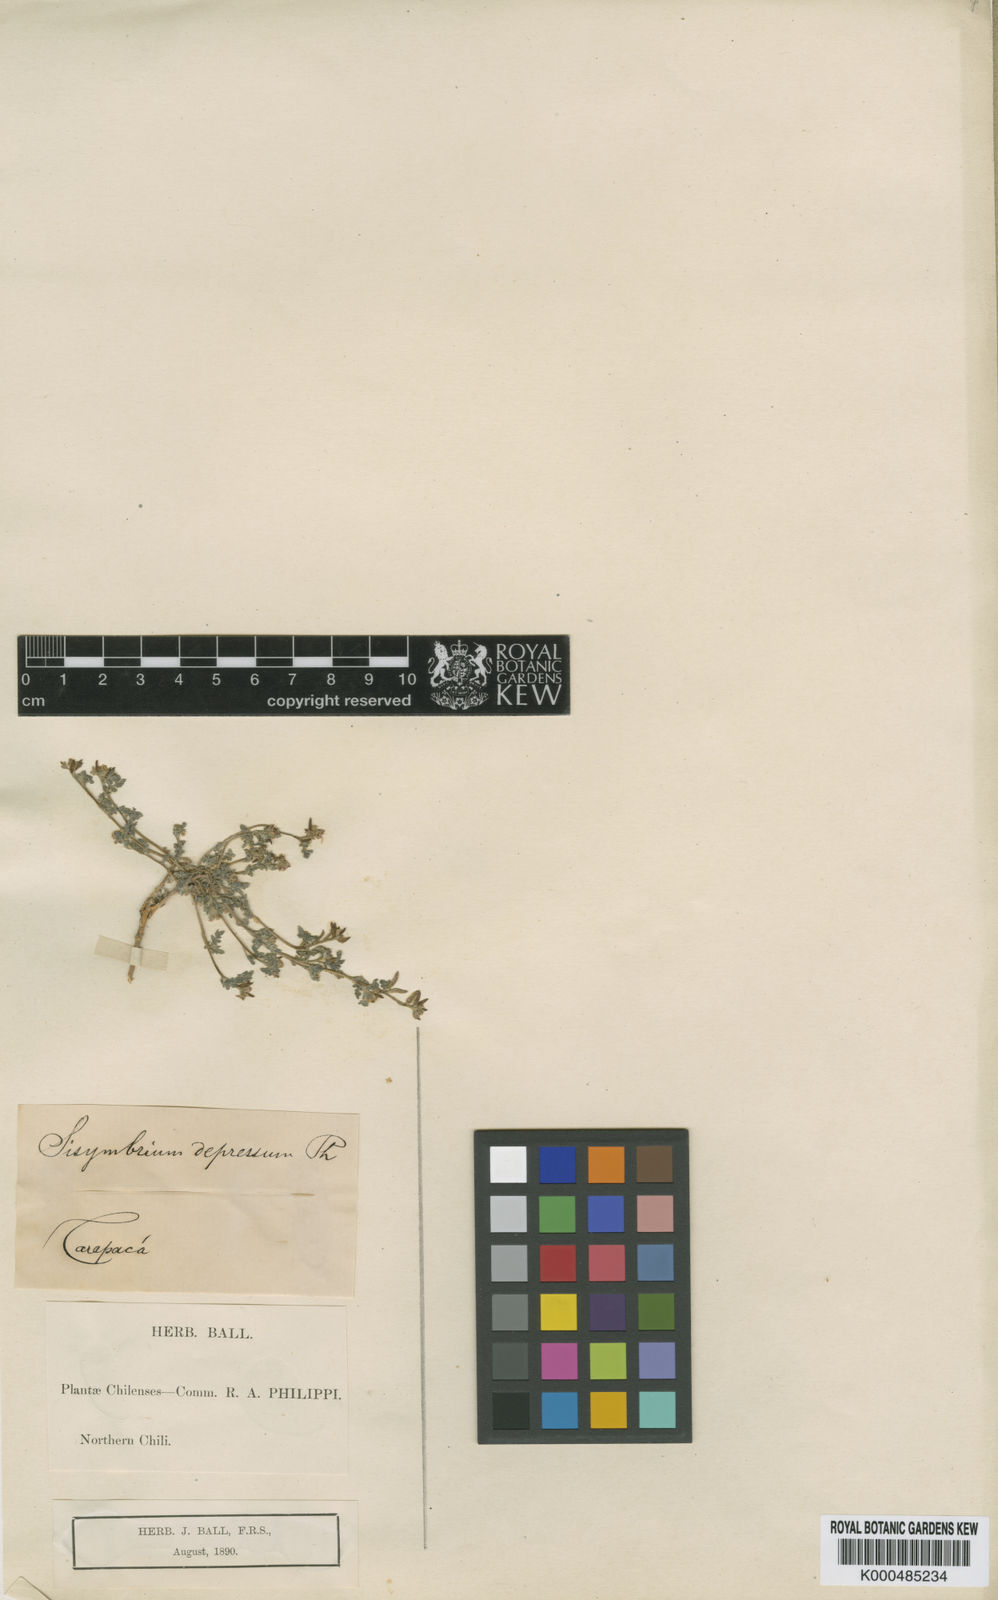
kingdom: Plantae
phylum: Tracheophyta
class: Magnoliopsida
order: Brassicales
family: Brassicaceae
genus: Descurainia
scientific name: Descurainia
